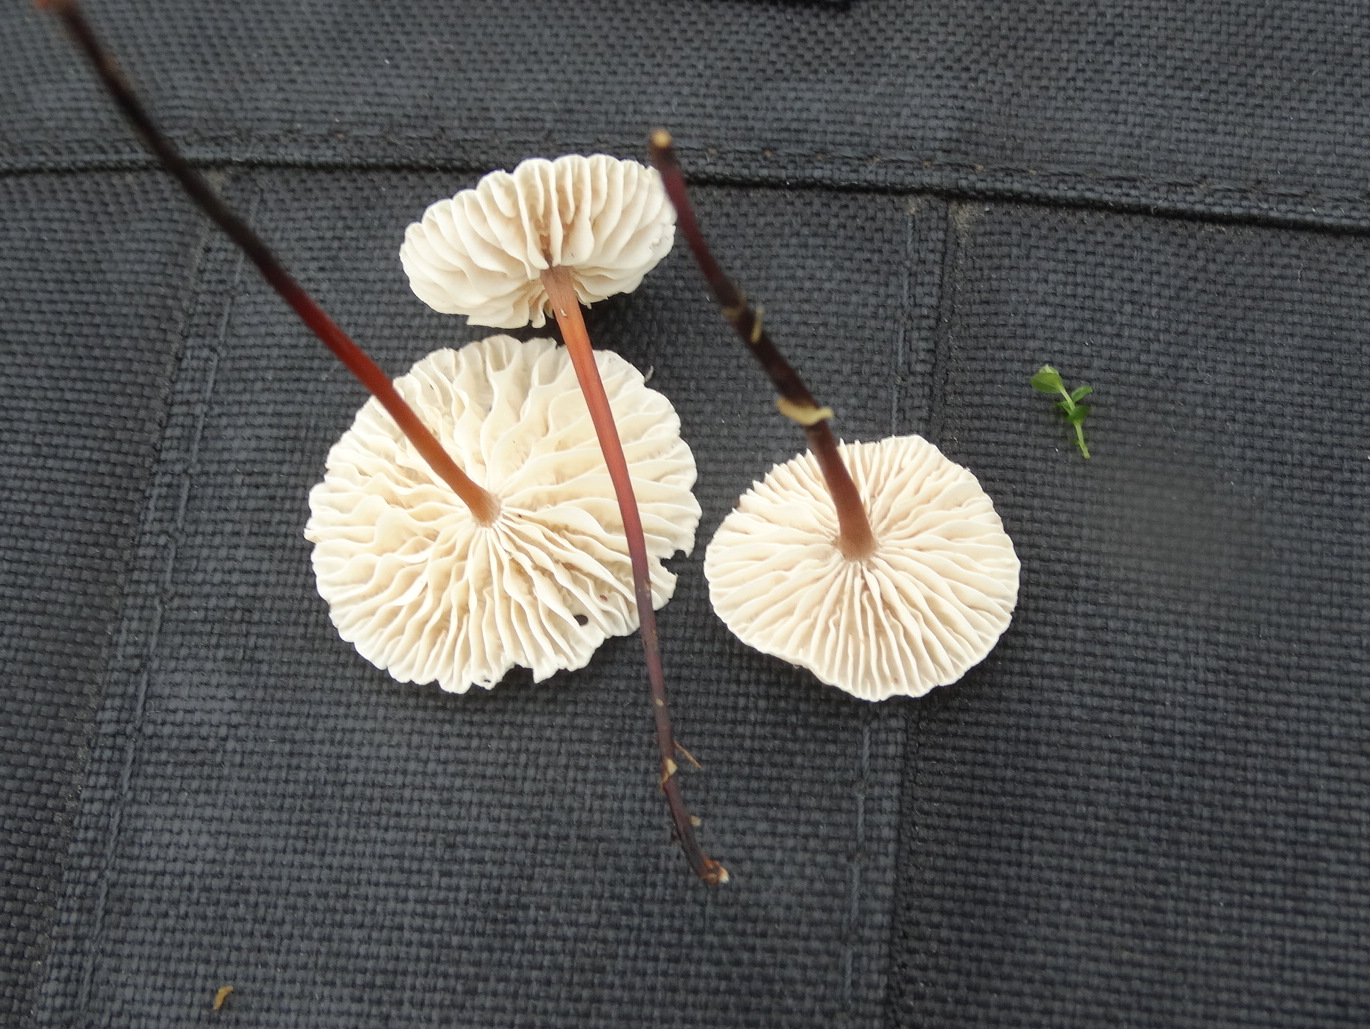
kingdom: Fungi
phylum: Basidiomycota
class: Agaricomycetes
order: Agaricales
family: Omphalotaceae
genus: Mycetinis
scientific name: Mycetinis scorodonius
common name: lille løghat
